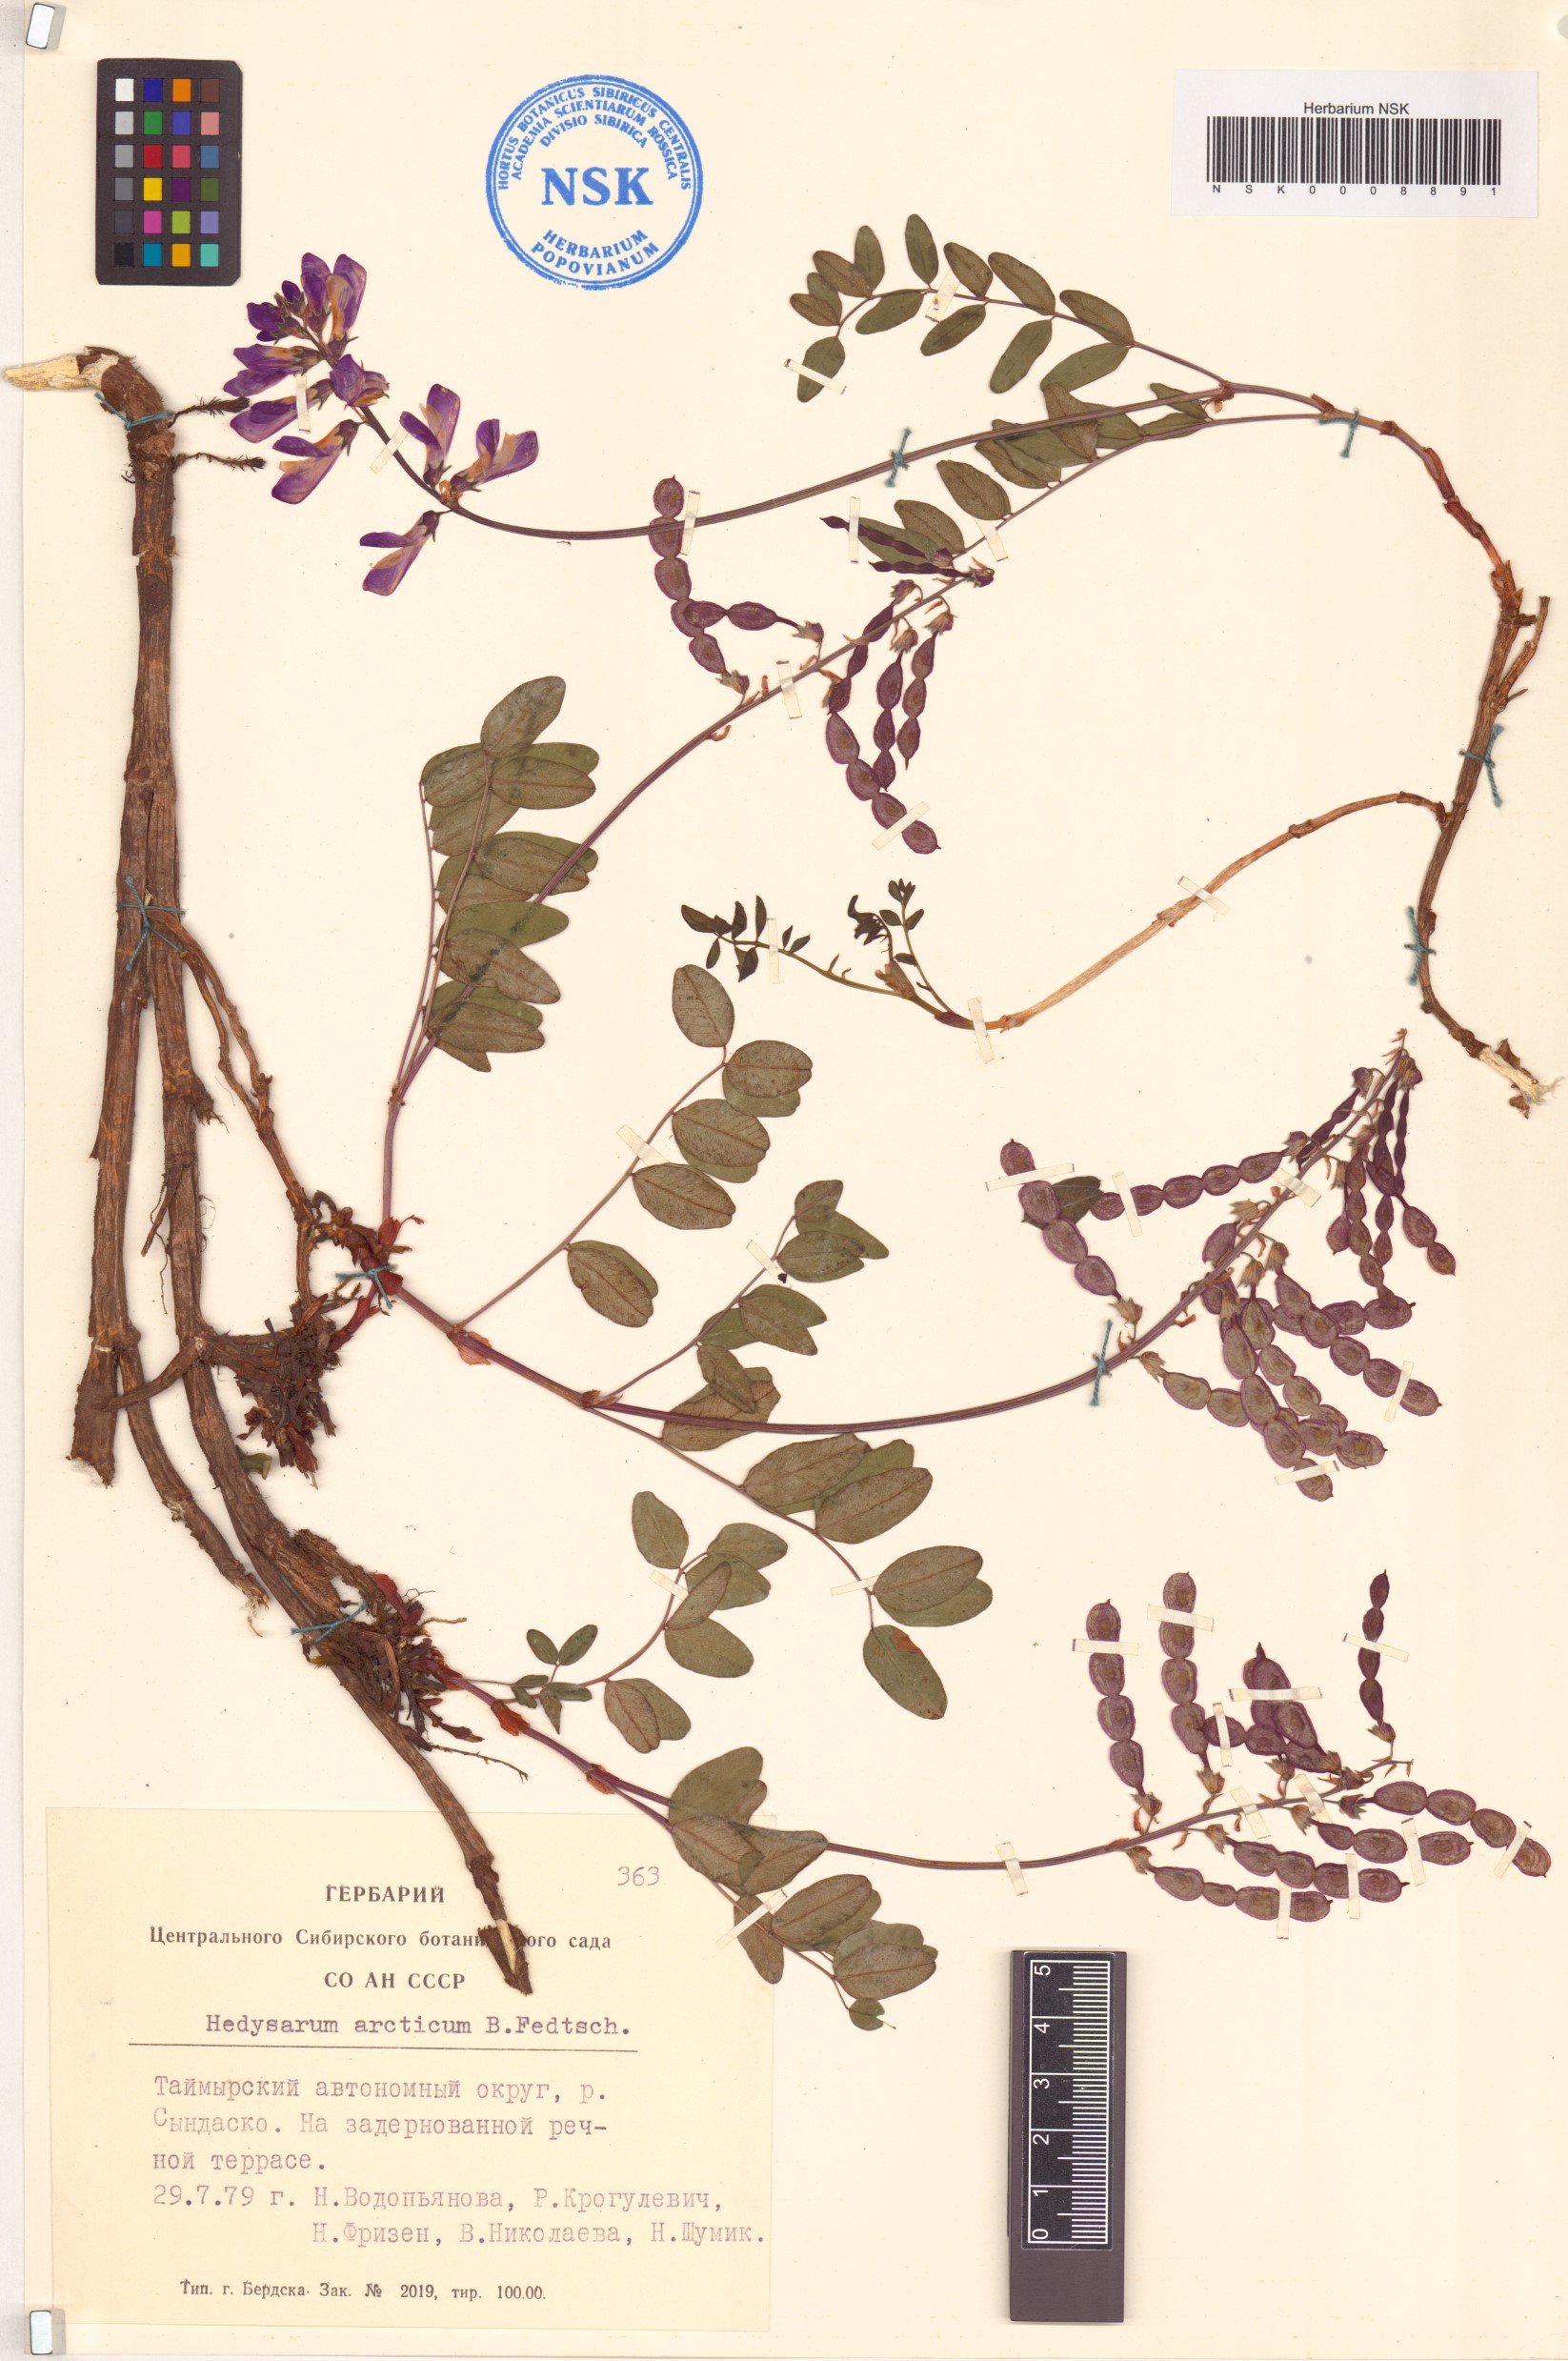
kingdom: Plantae
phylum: Tracheophyta
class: Magnoliopsida
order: Fabales
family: Fabaceae
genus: Hedysarum
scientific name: Hedysarum hedysaroides
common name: Alpine french-honeysuckle
